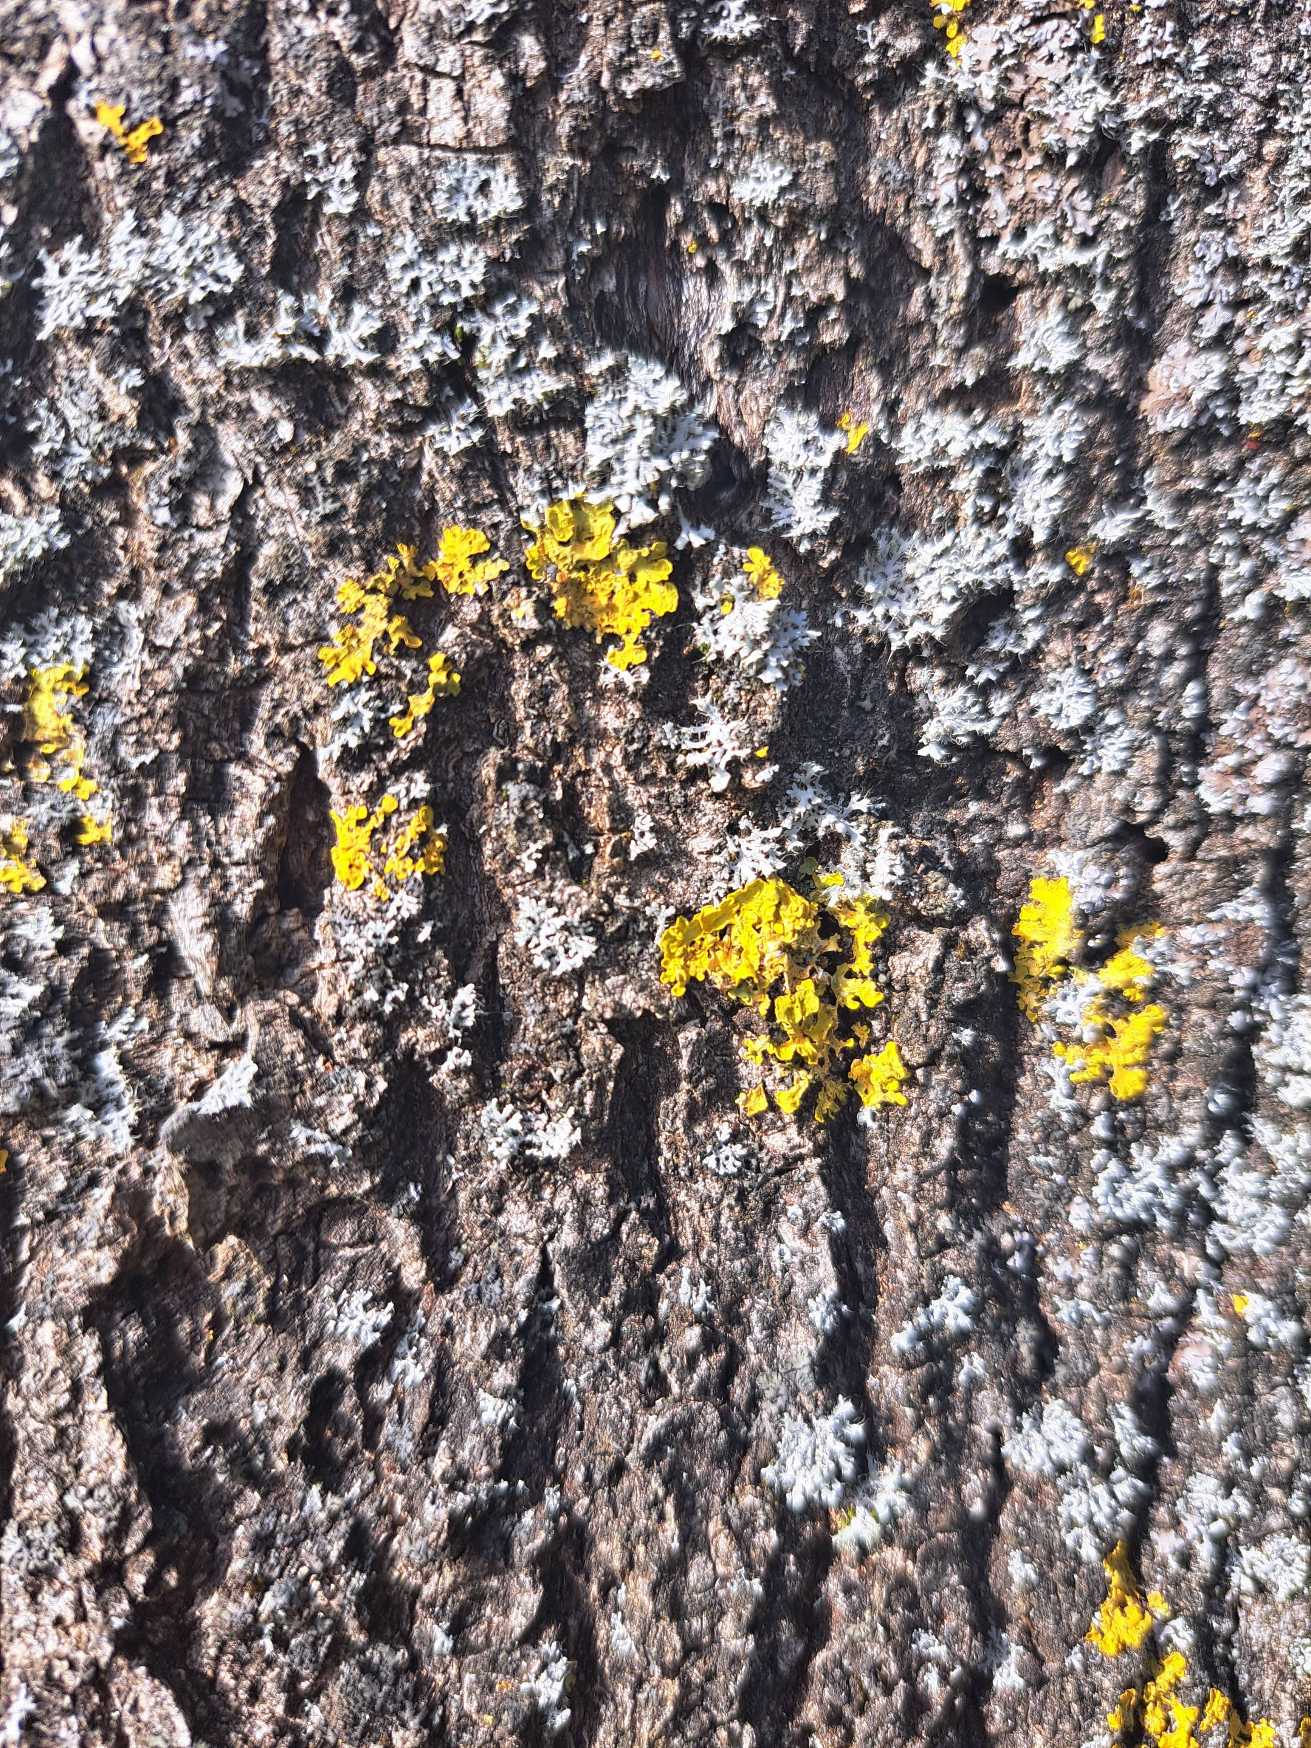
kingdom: Fungi
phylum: Ascomycota
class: Lecanoromycetes
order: Teloschistales
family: Teloschistaceae
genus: Xanthoria
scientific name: Xanthoria parietina
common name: Almindelig væggelav
